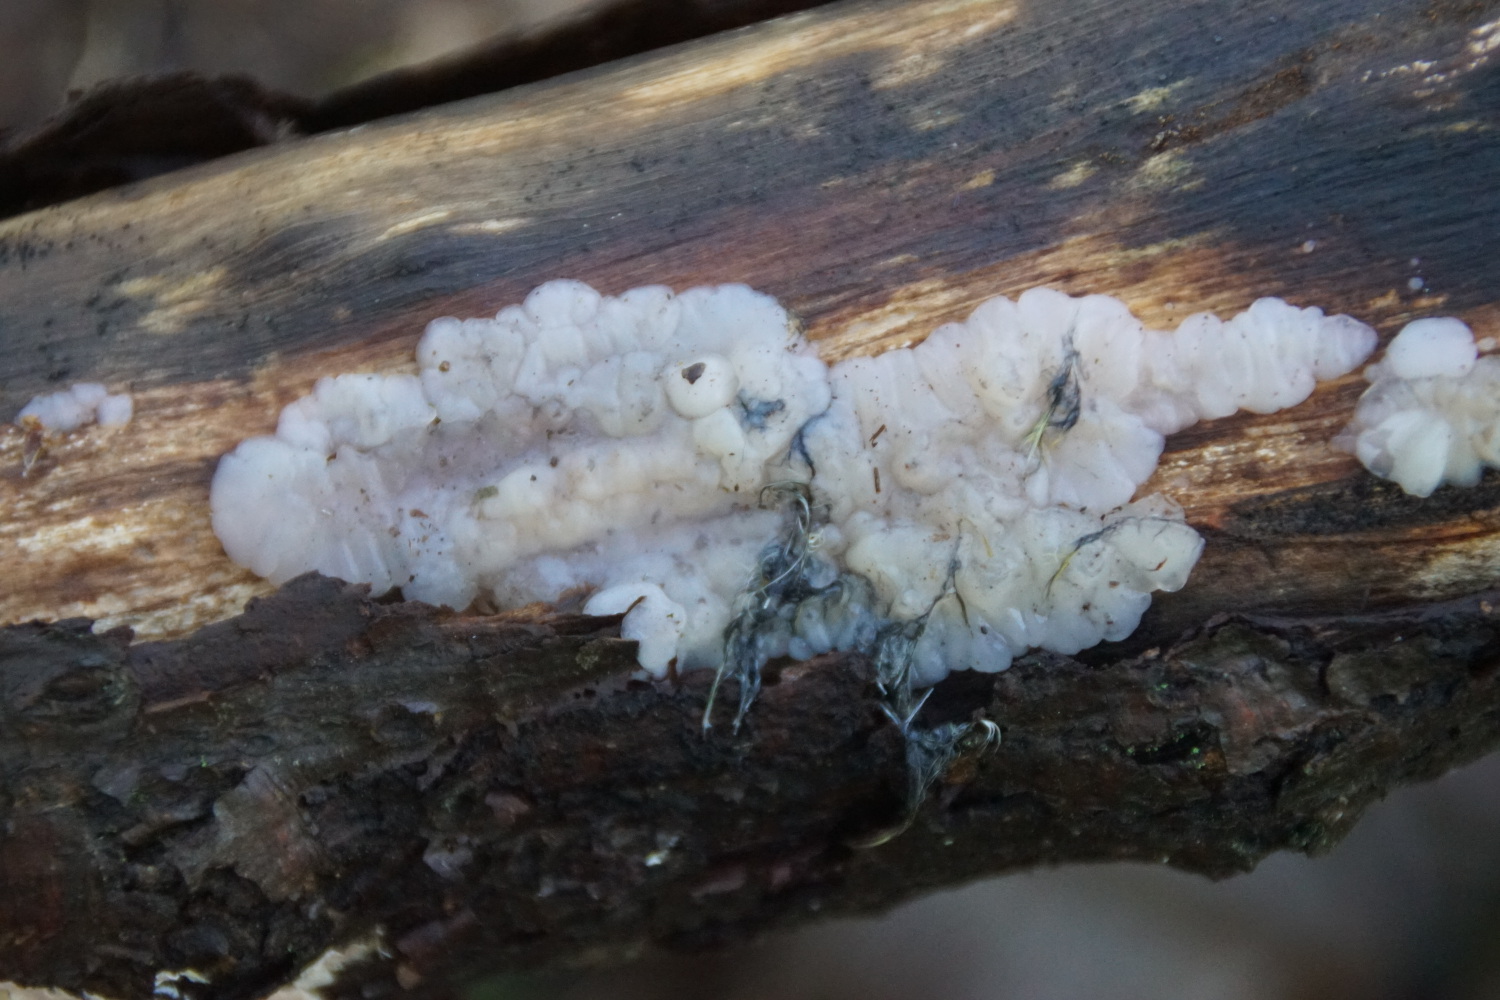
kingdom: Fungi
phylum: Basidiomycota
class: Agaricomycetes
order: Auriculariales
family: Auriculariaceae
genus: Exidia
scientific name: Exidia thuretiana
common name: hvidlig bævretop
